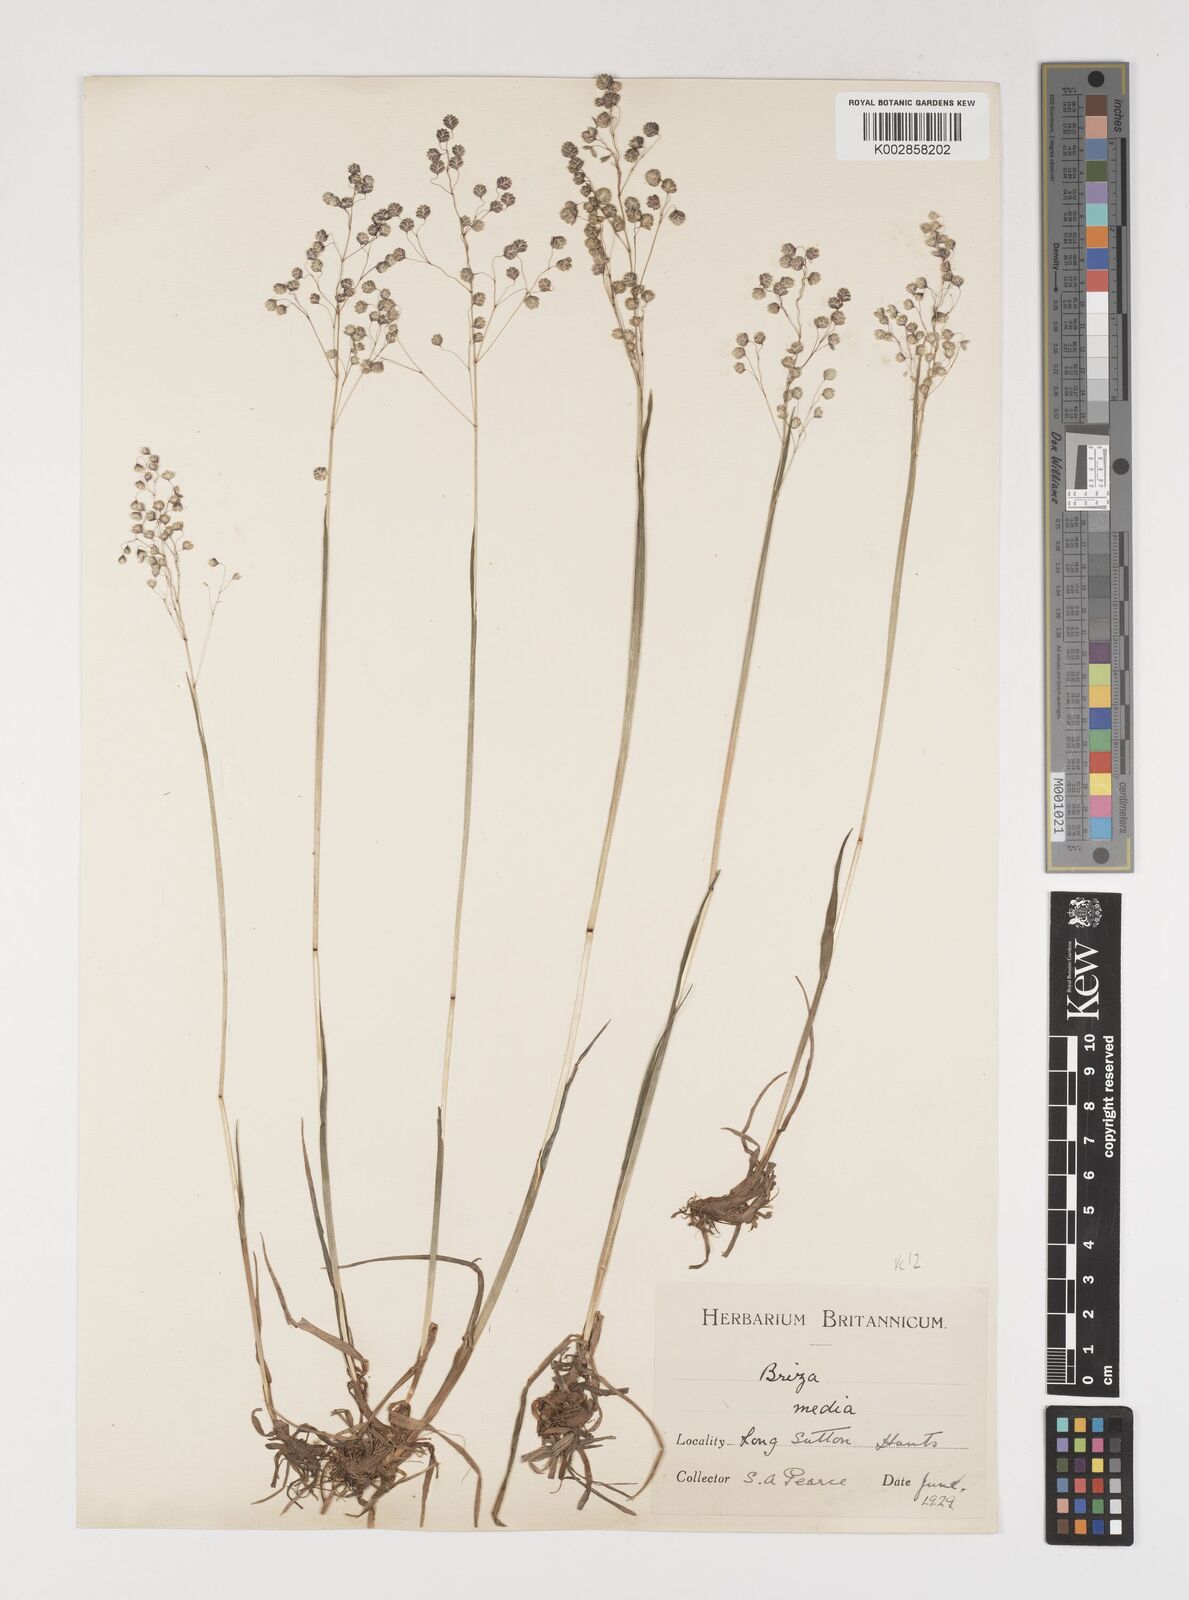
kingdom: Plantae
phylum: Tracheophyta
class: Liliopsida
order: Poales
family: Poaceae
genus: Briza
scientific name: Briza media
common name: Quaking grass
